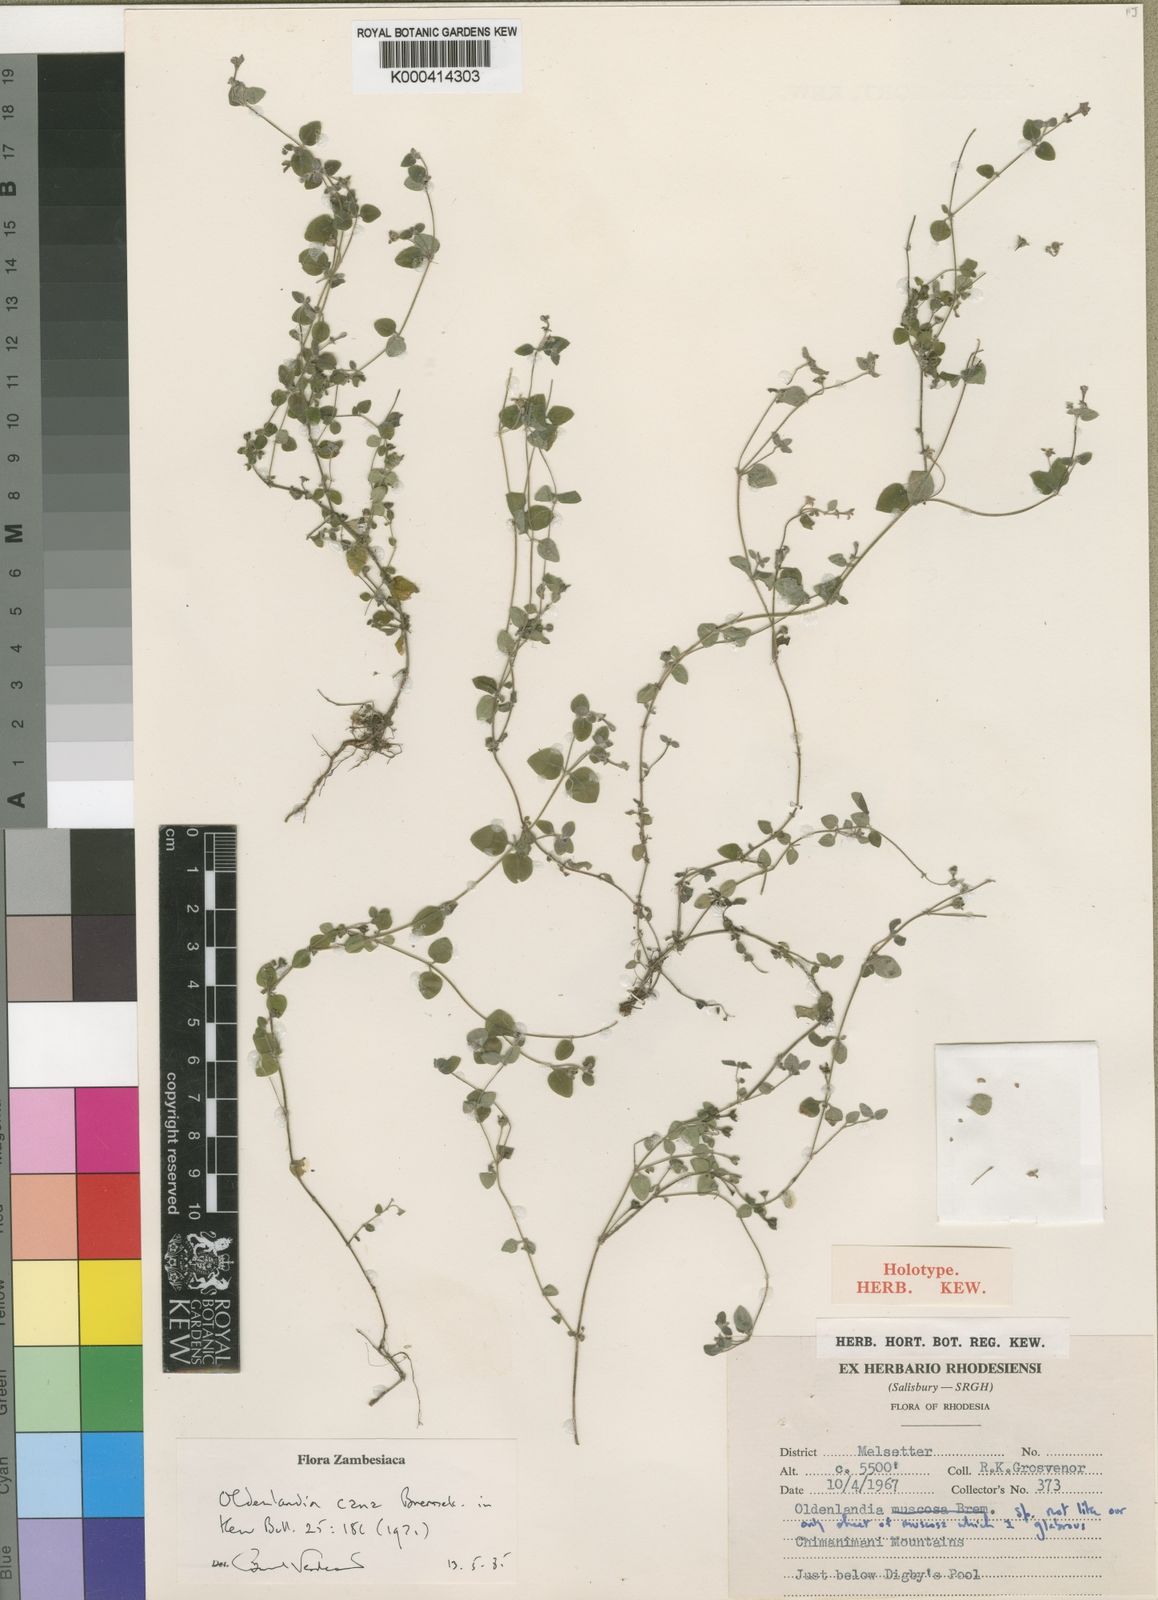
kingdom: Plantae
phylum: Tracheophyta
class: Magnoliopsida
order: Gentianales
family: Rubiaceae
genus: Oldenlandia
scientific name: Oldenlandia cana
